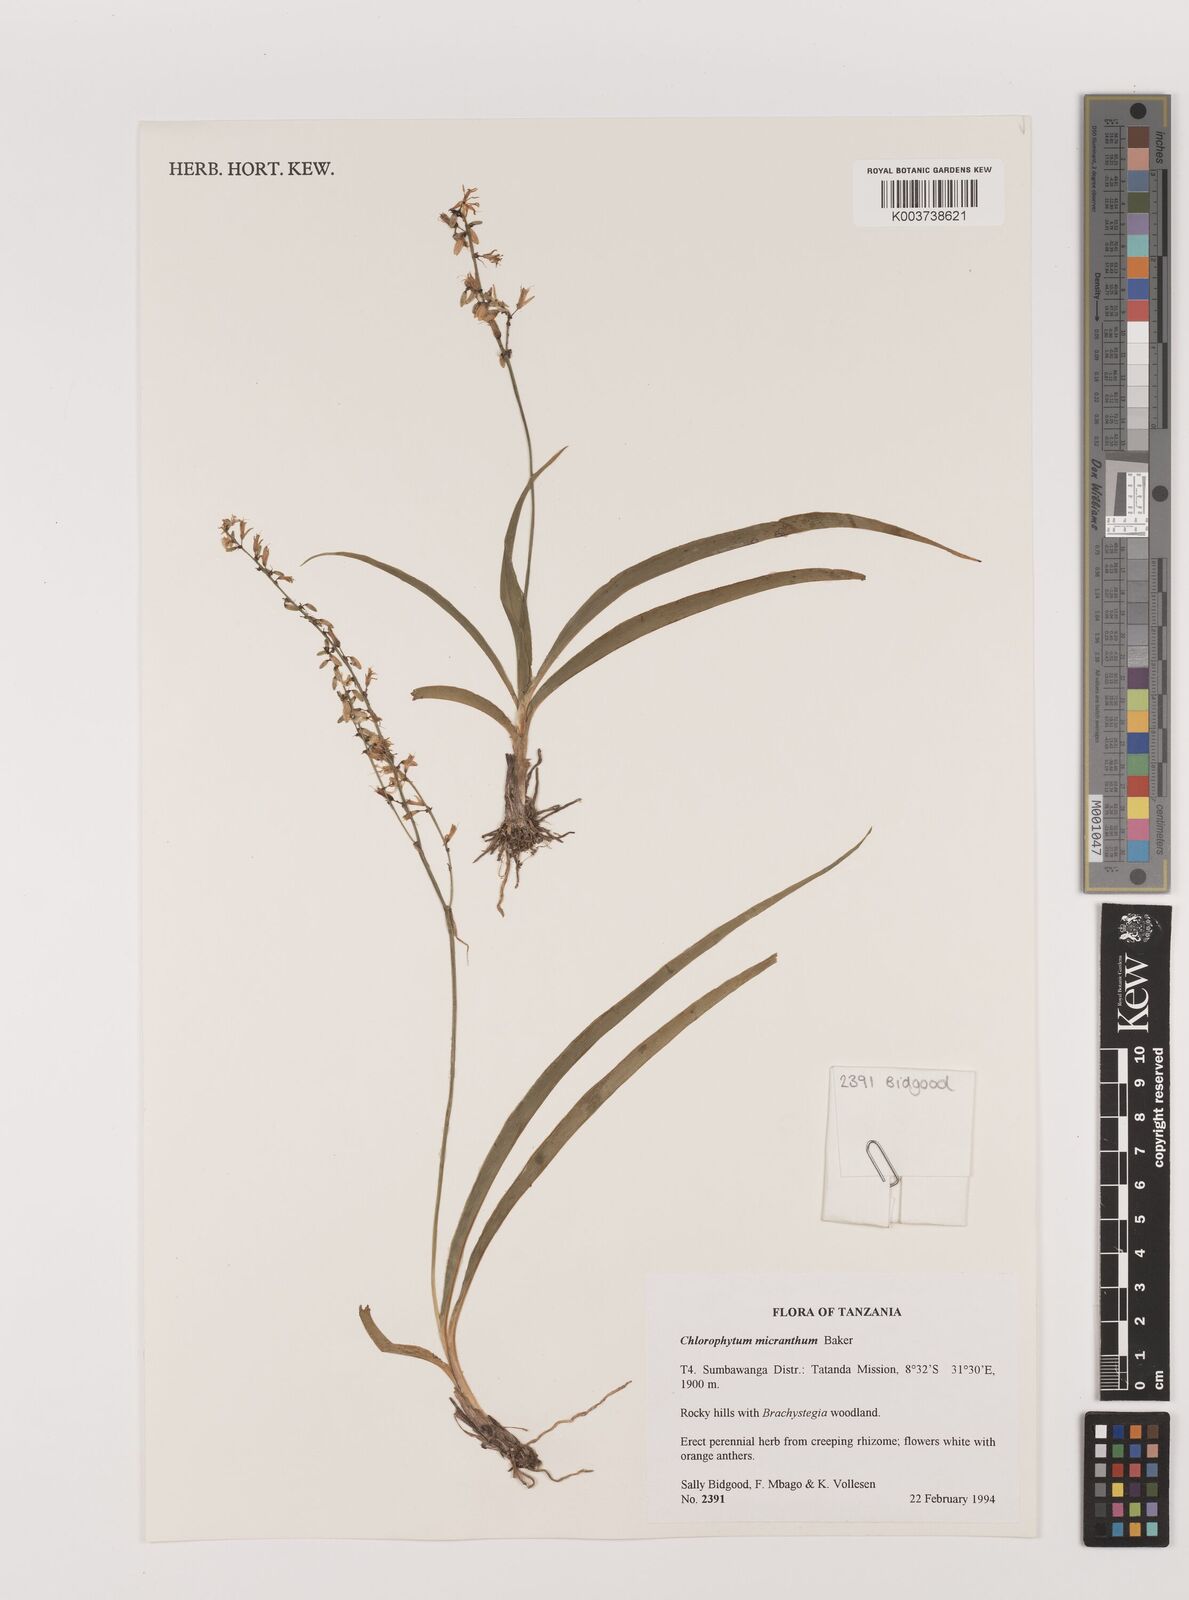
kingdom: Plantae
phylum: Tracheophyta
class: Liliopsida
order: Asparagales
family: Asparagaceae
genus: Chlorophytum
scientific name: Chlorophytum gallabatense
